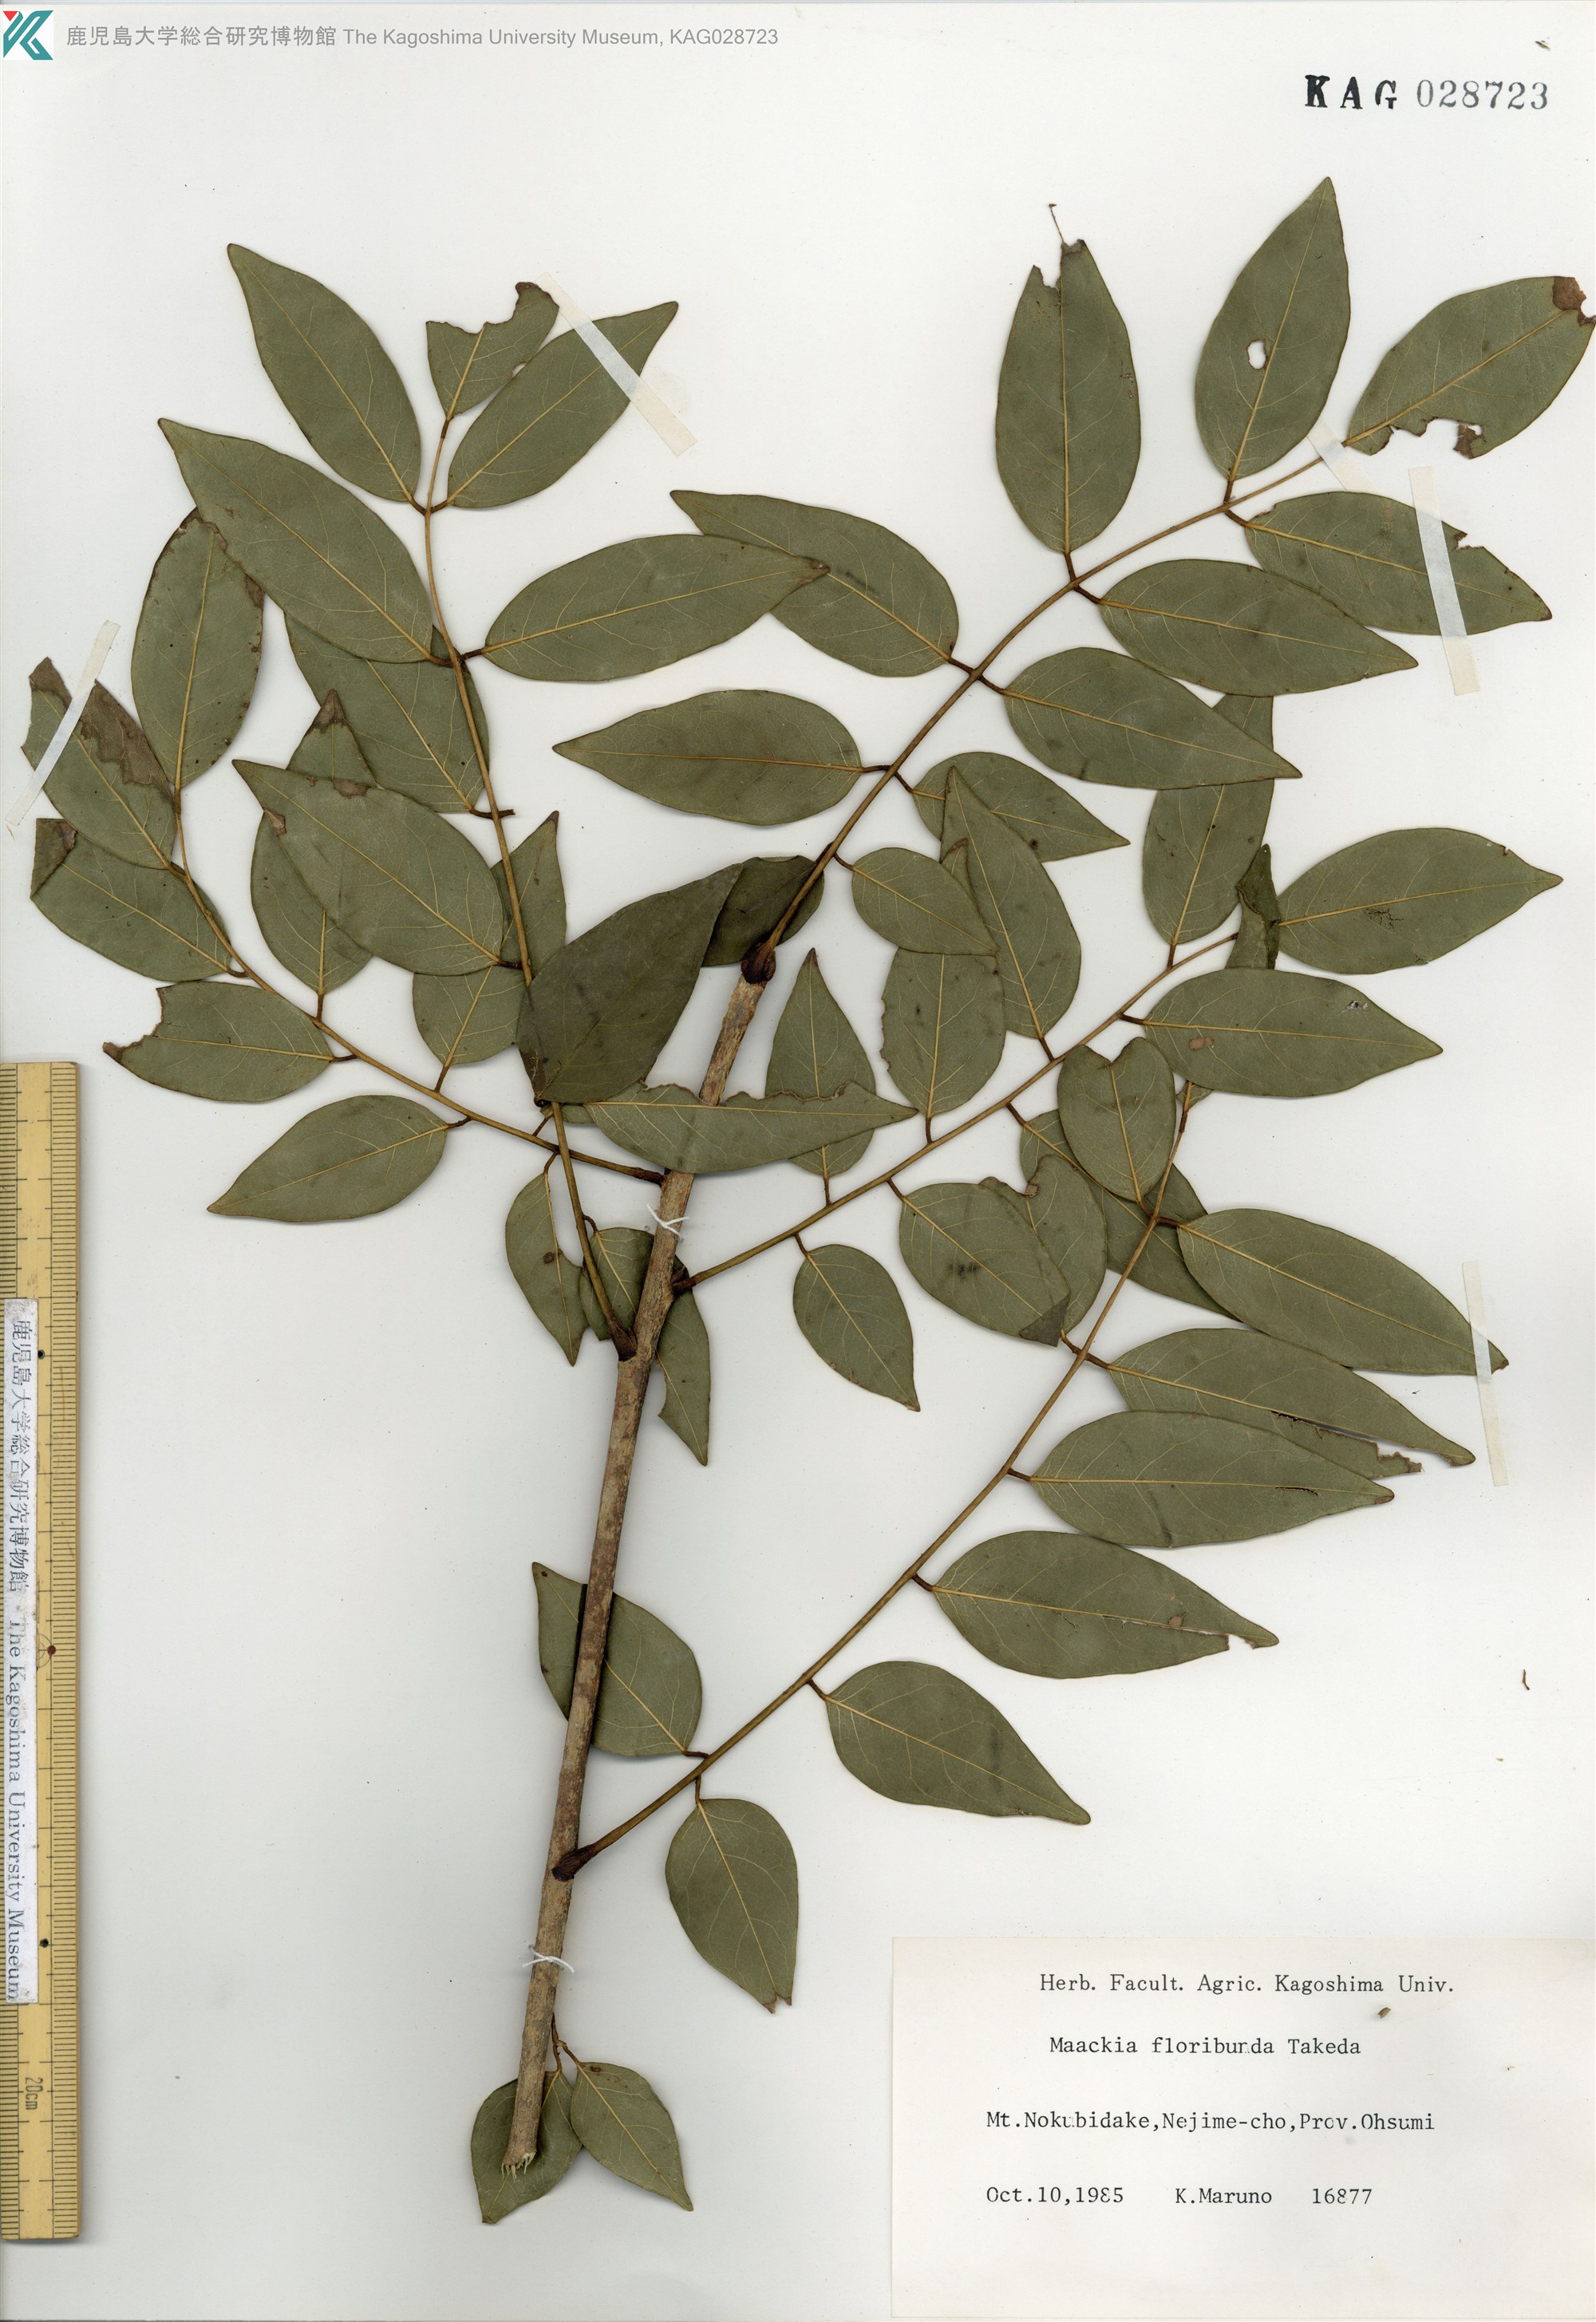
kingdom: Plantae
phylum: Tracheophyta
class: Magnoliopsida
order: Fabales
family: Fabaceae
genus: Maackia
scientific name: Maackia amurensis
